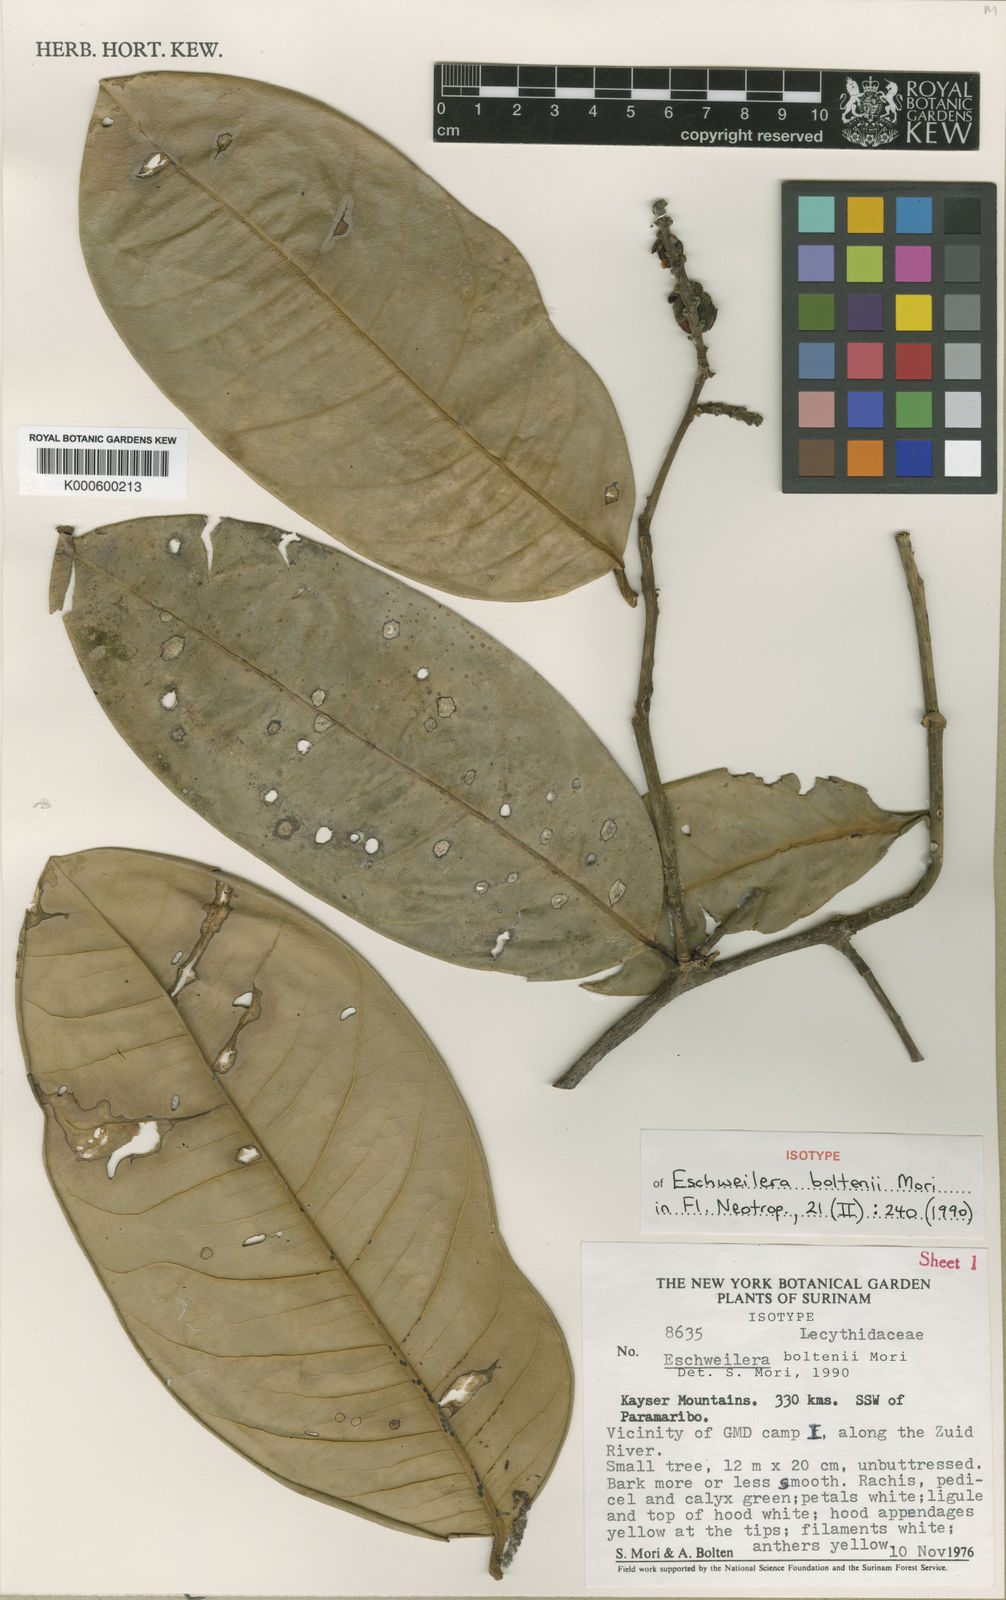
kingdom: Plantae
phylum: Tracheophyta
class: Magnoliopsida
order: Ericales
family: Lecythidaceae
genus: Eschweilera
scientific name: Eschweilera boltenii
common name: Bolten eschweilera
